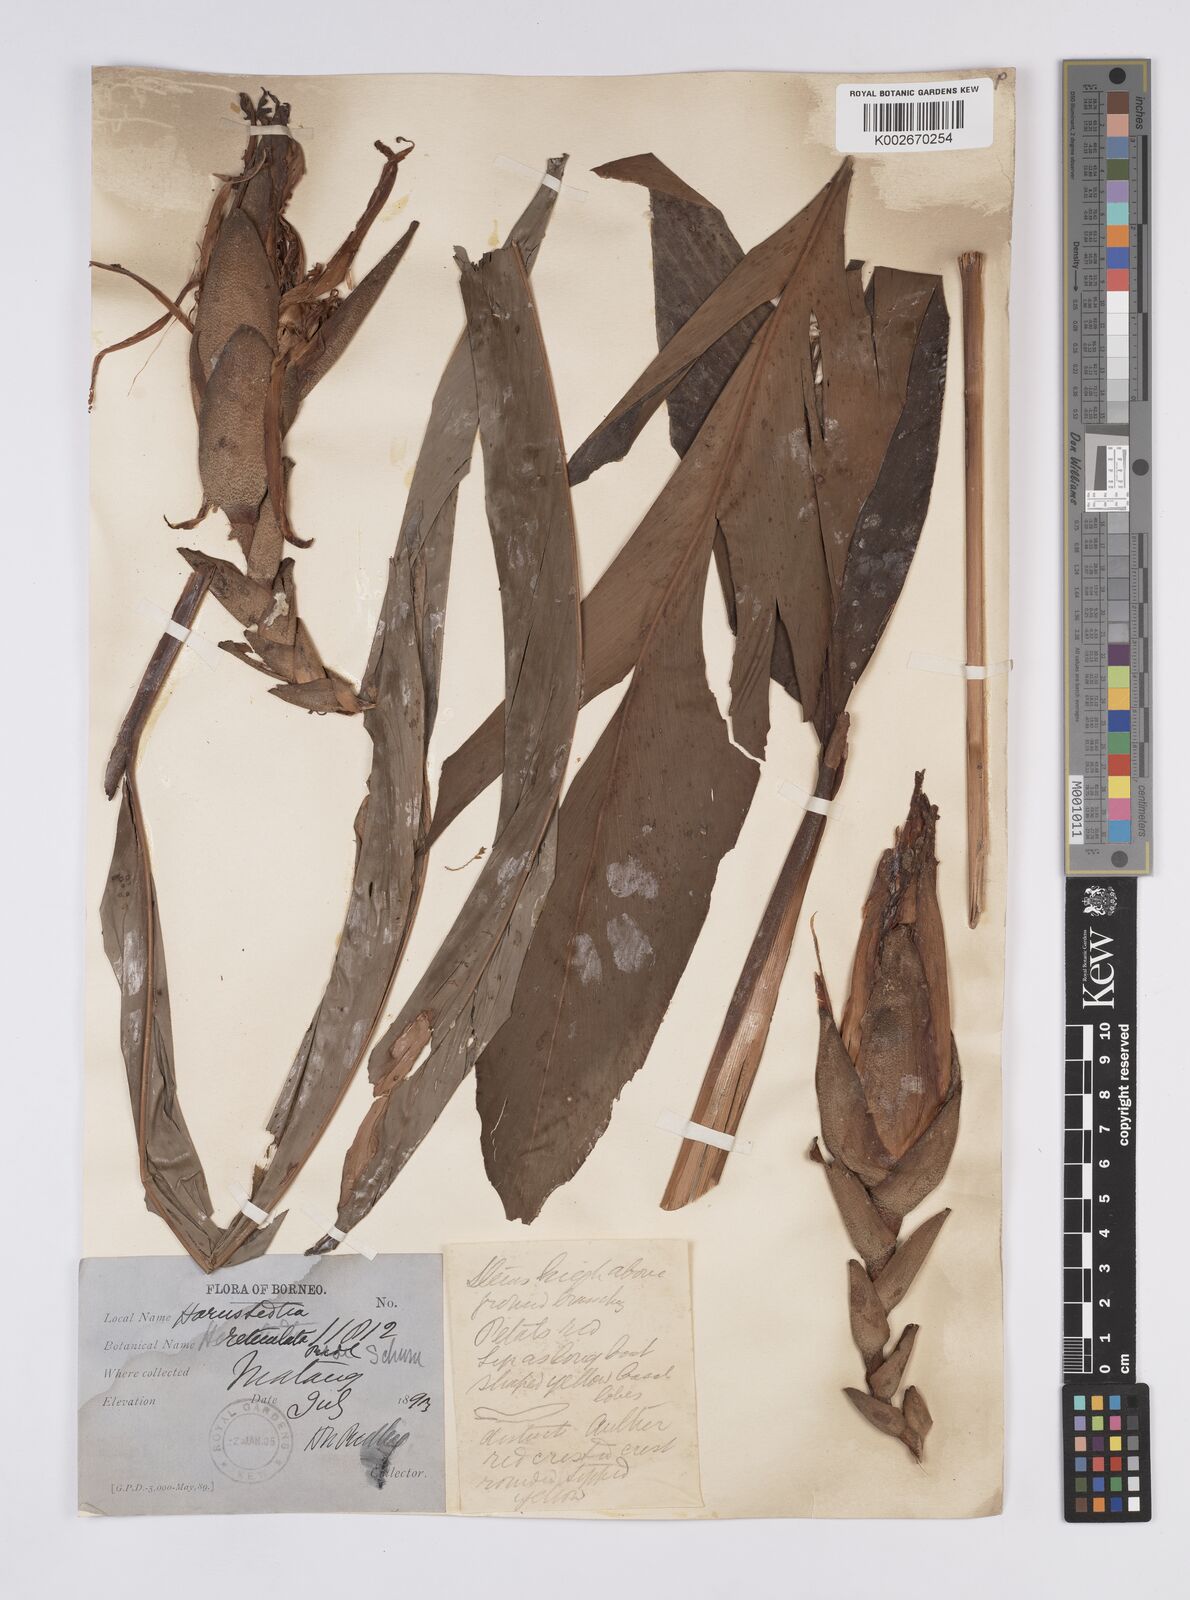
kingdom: Plantae
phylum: Tracheophyta
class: Liliopsida
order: Zingiberales
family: Zingiberaceae
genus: Hornstedtia
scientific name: Hornstedtia reticulata
